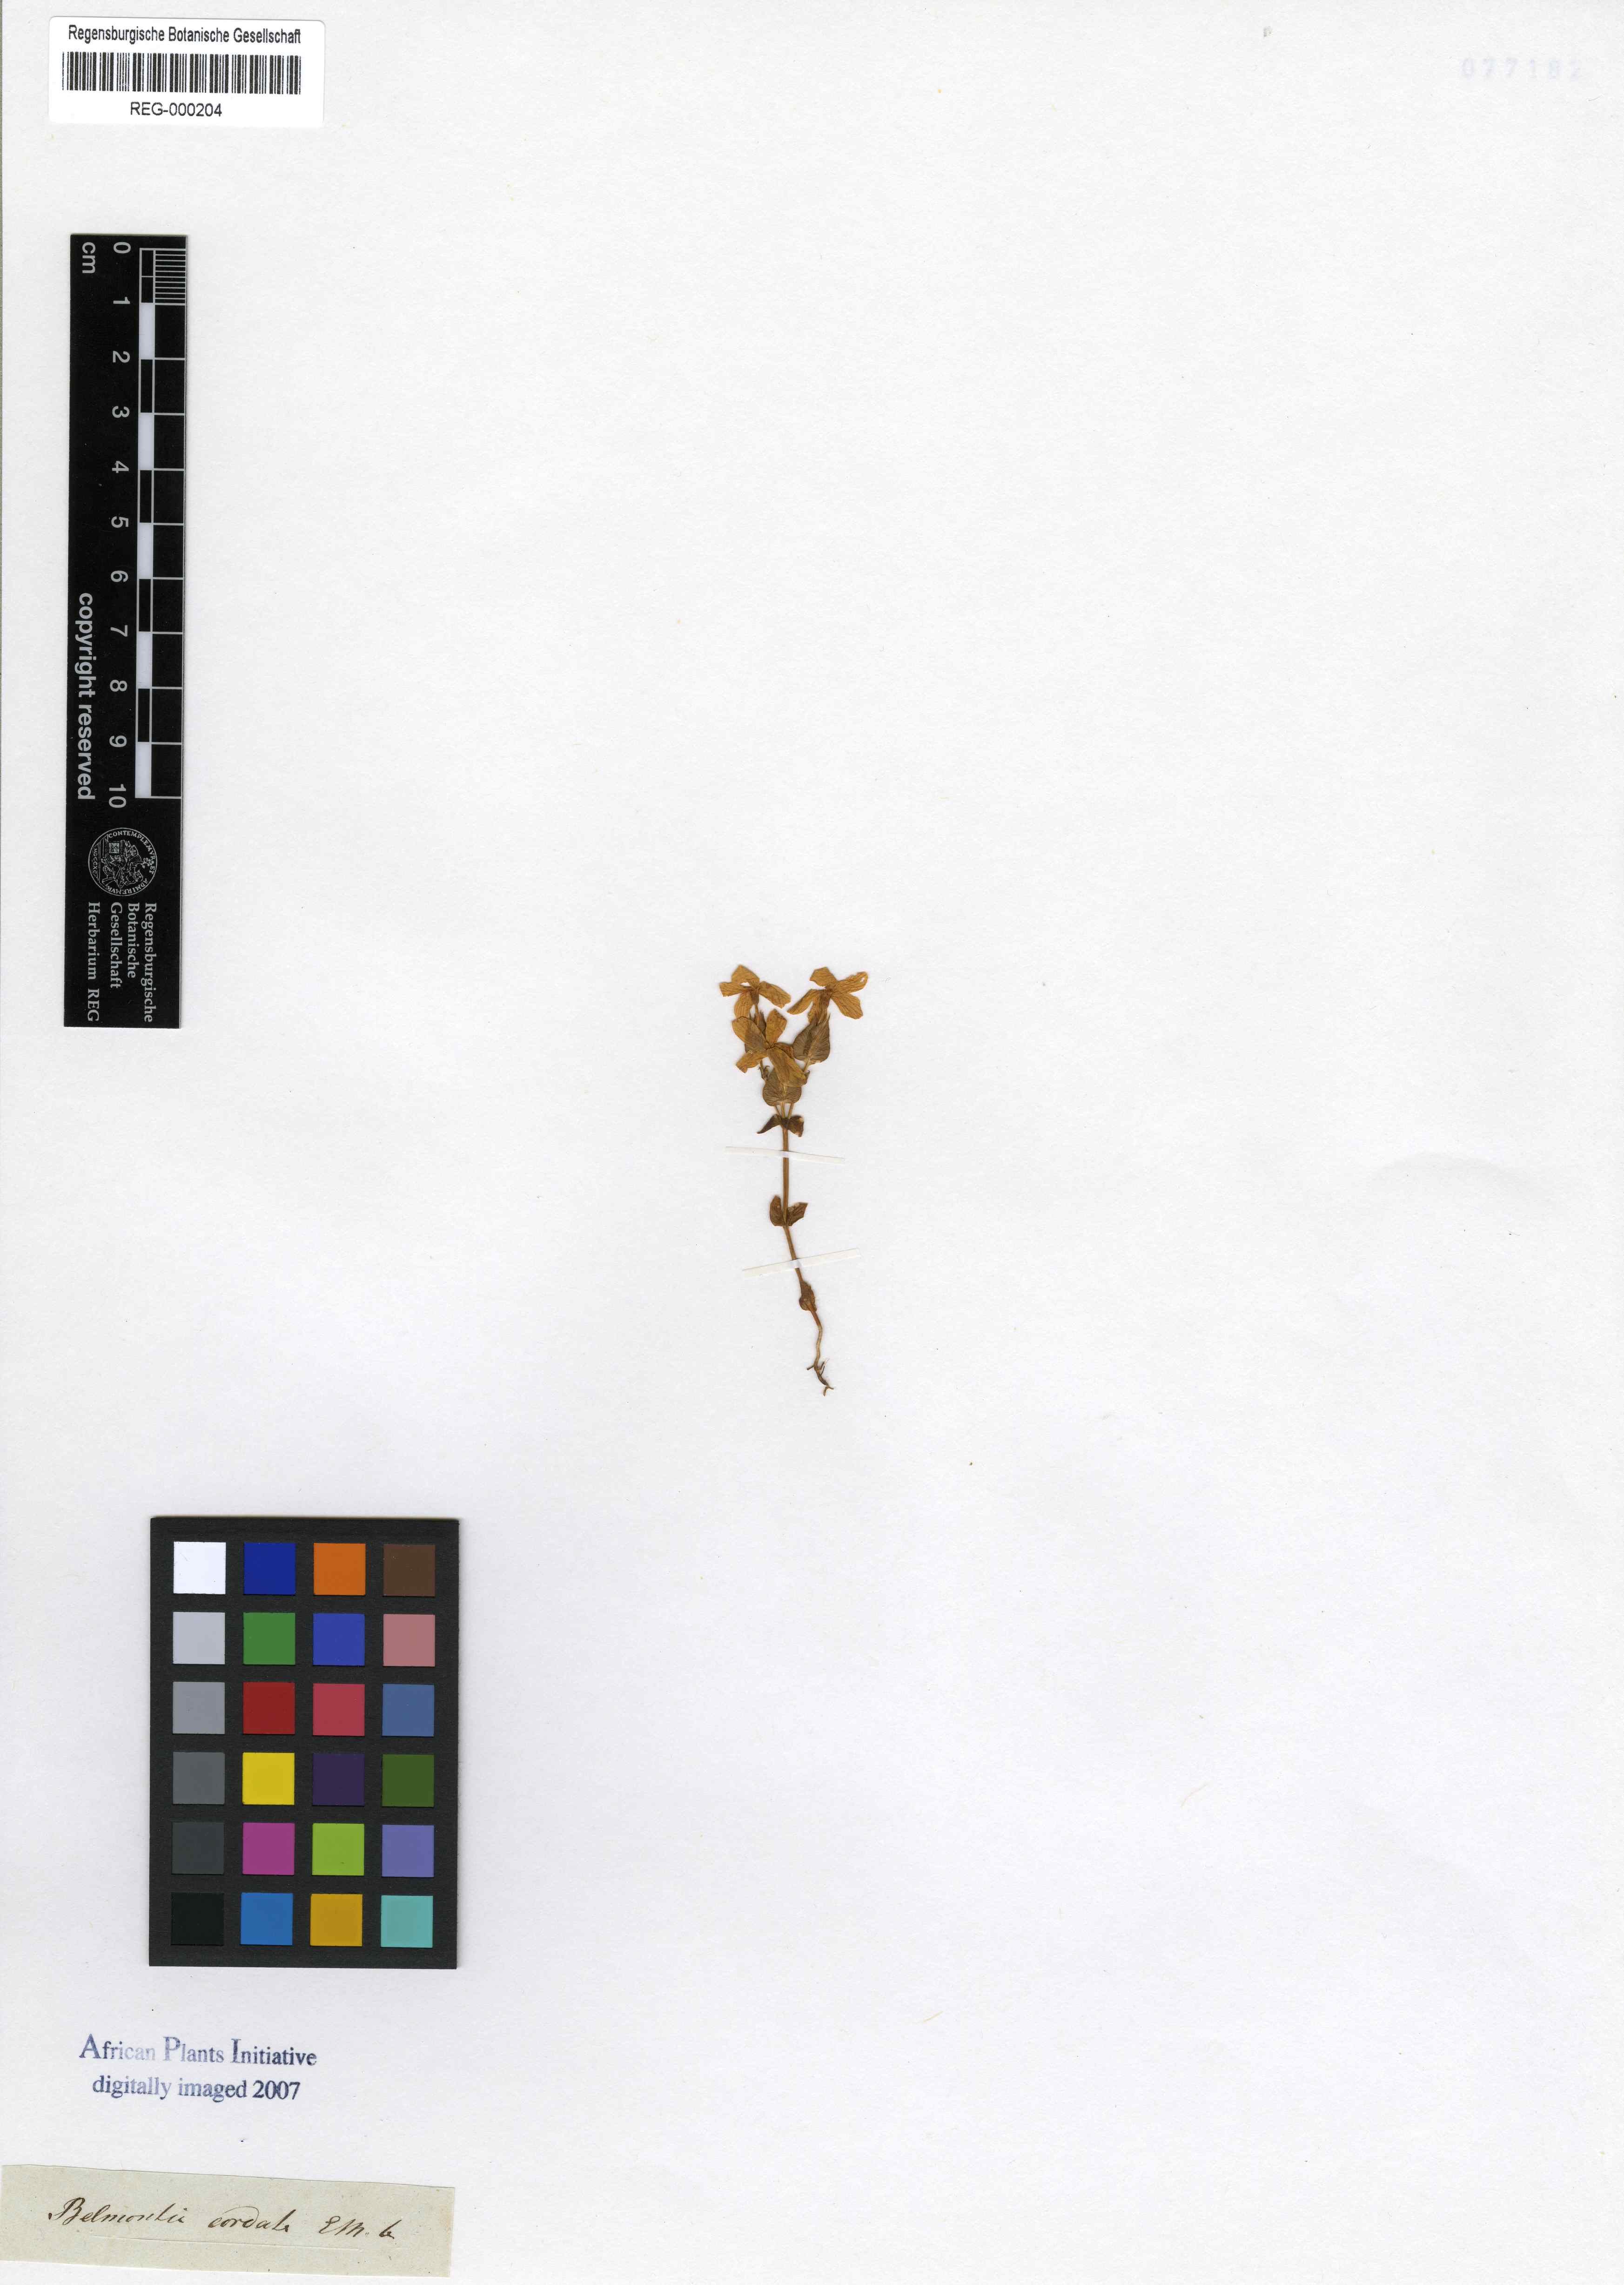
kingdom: Plantae
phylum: Tracheophyta
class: Magnoliopsida
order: Gentianales
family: Gentianaceae
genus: Sebaea
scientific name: Sebaea exacoides
